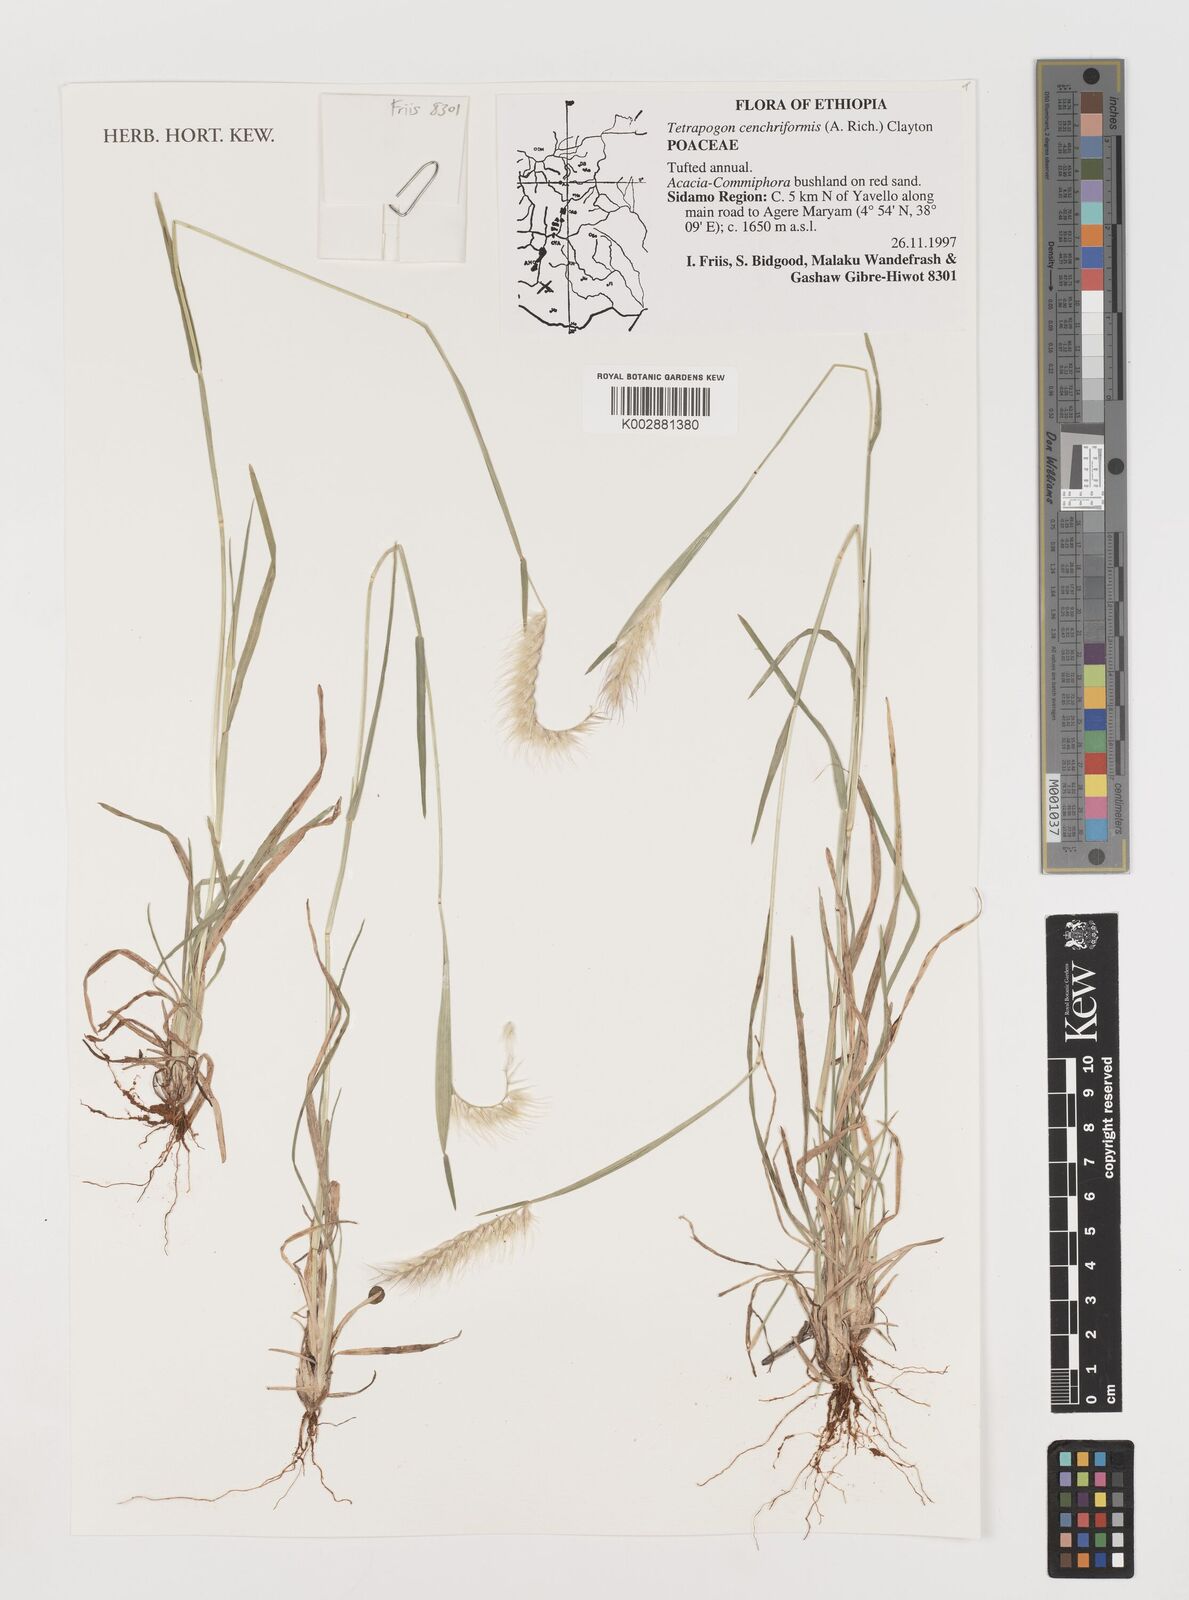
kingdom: Plantae
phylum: Tracheophyta
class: Liliopsida
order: Poales
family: Poaceae
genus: Tetrapogon
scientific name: Tetrapogon cenchriformis
